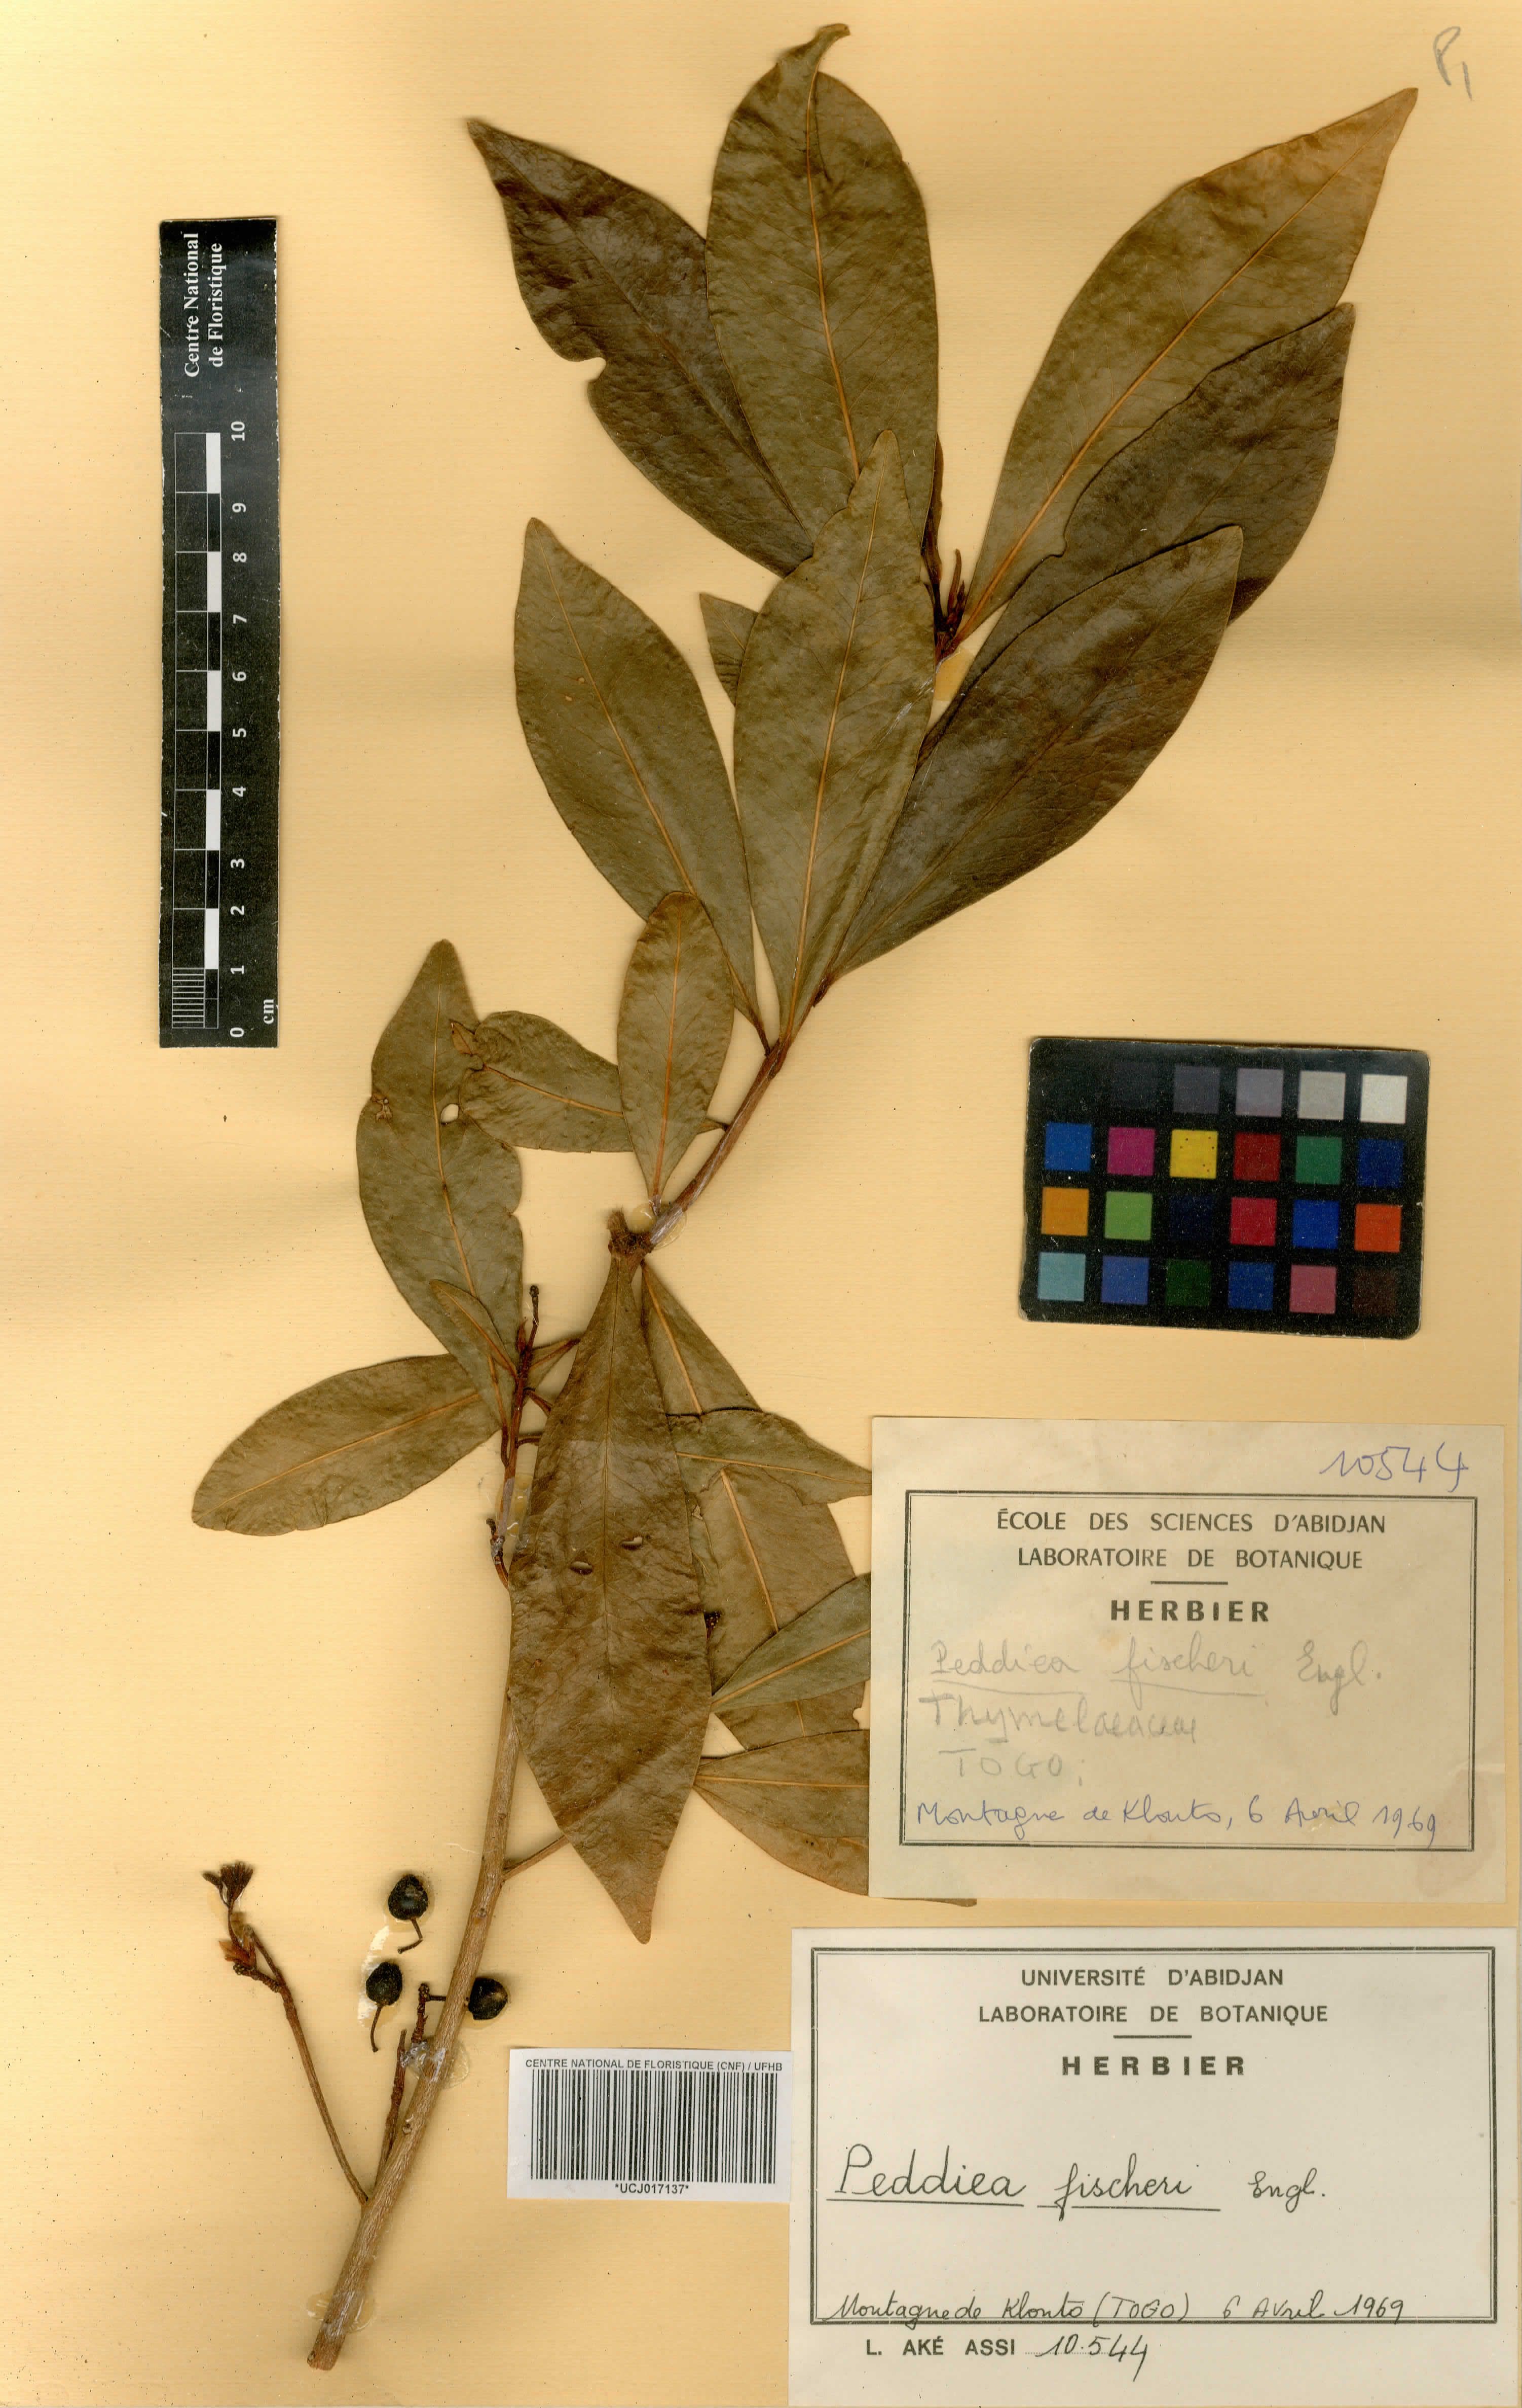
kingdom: Plantae
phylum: Tracheophyta
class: Magnoliopsida
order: Malvales
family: Thymelaeaceae
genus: Peddiea
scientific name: Peddiea fischeri
